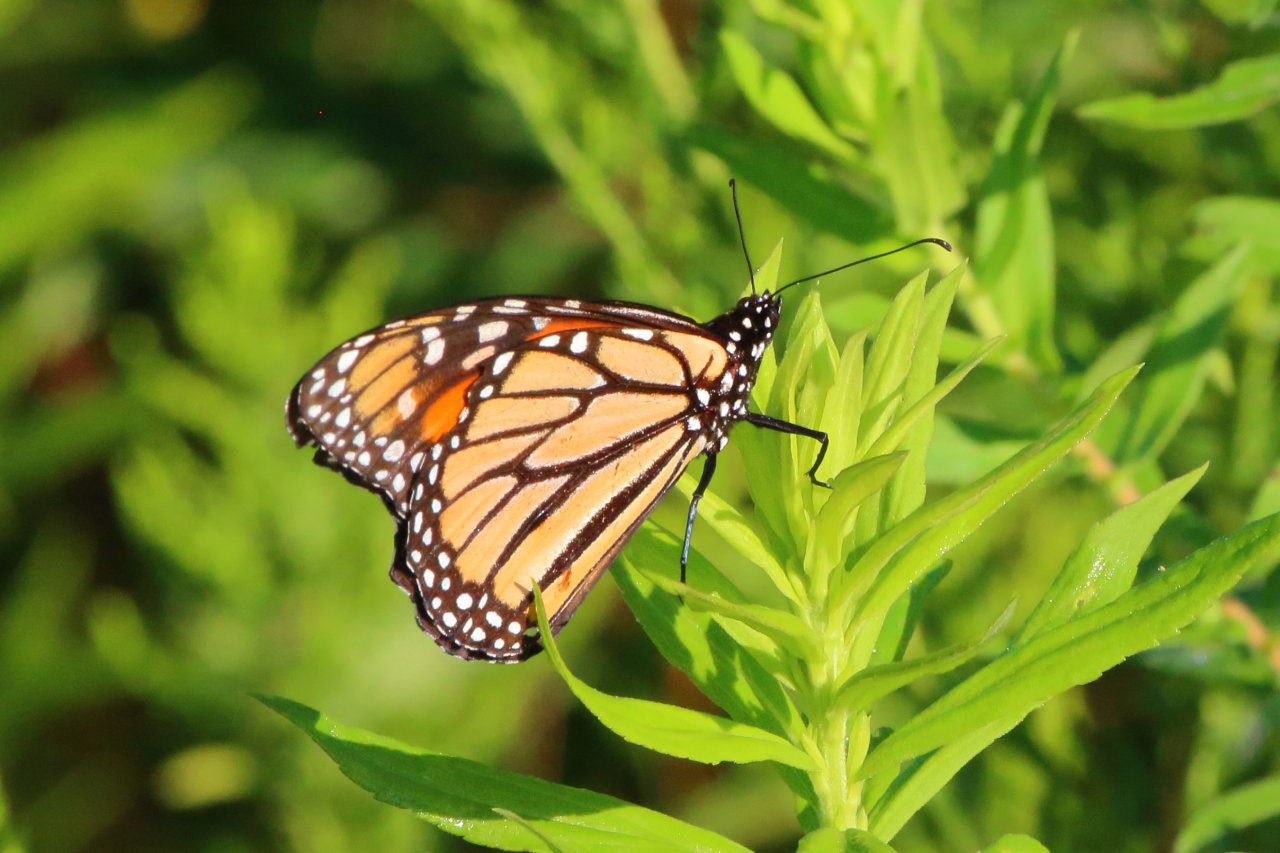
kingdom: Animalia
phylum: Arthropoda
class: Insecta
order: Lepidoptera
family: Nymphalidae
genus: Danaus
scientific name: Danaus plexippus
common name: Monarch
